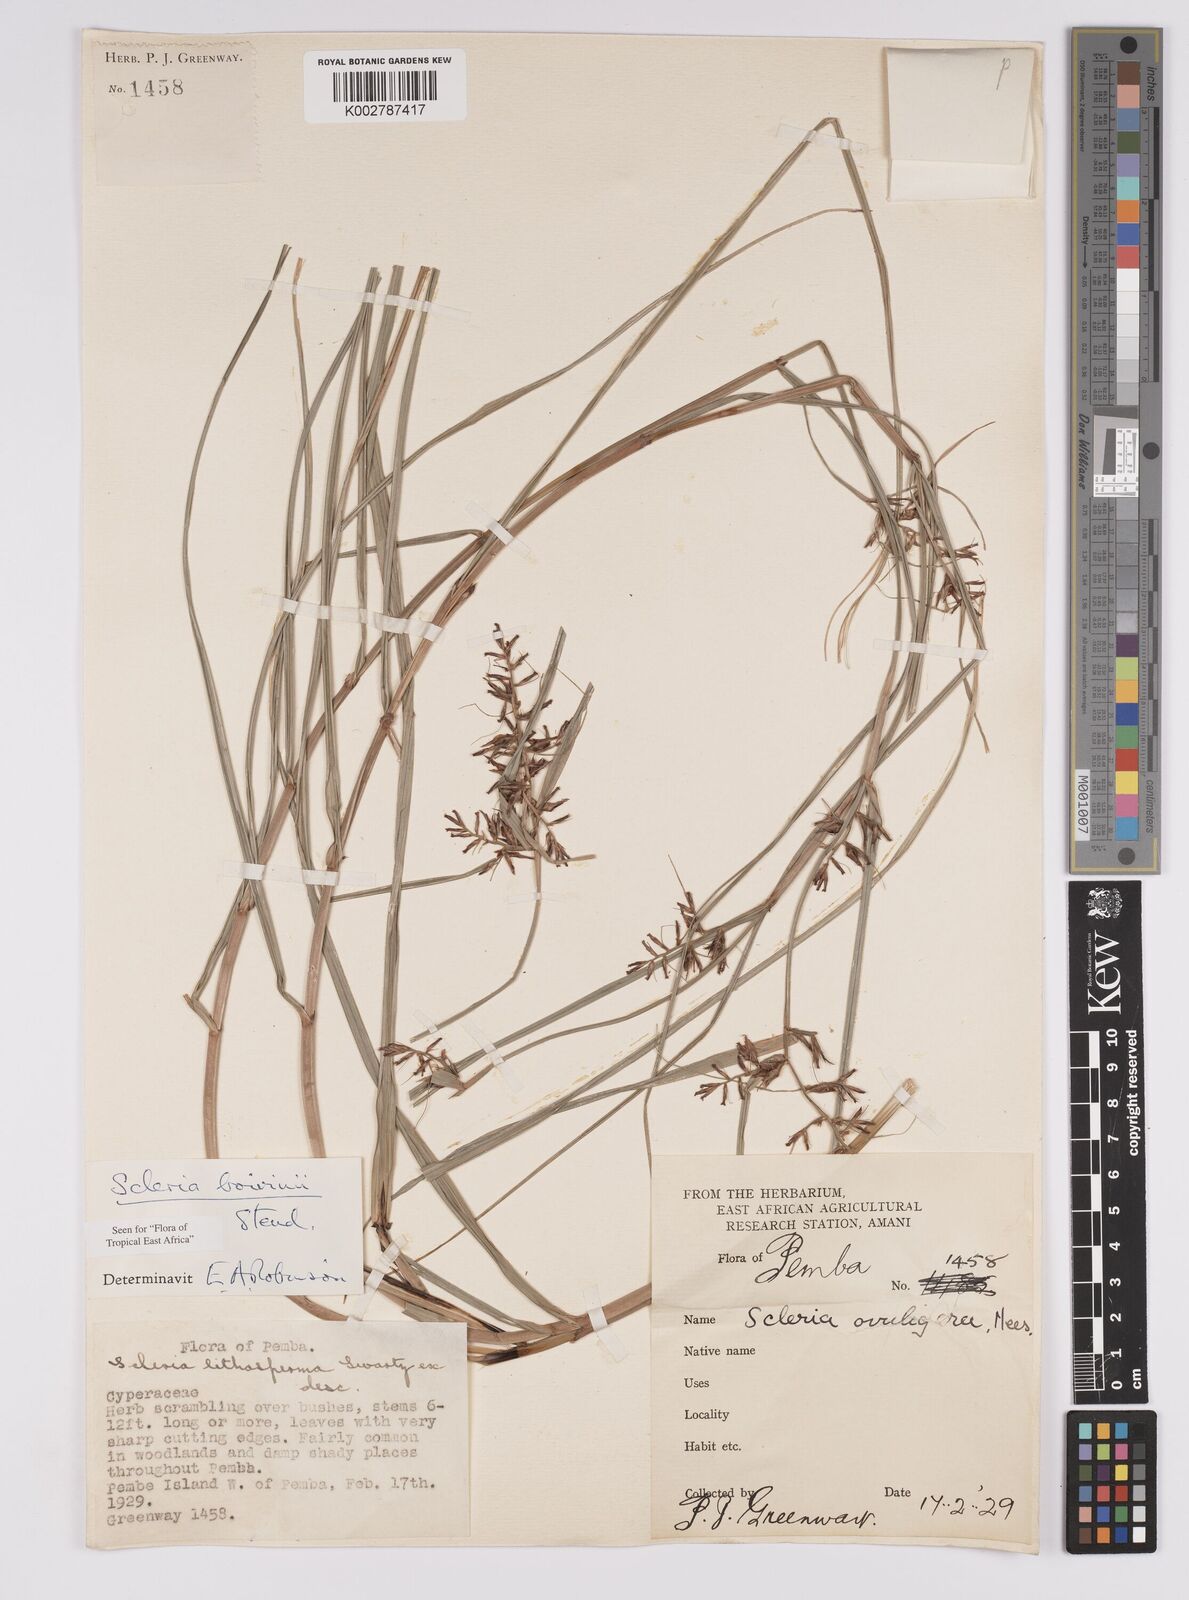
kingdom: Plantae
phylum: Tracheophyta
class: Liliopsida
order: Poales
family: Cyperaceae
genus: Scleria
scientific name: Scleria boivinii
